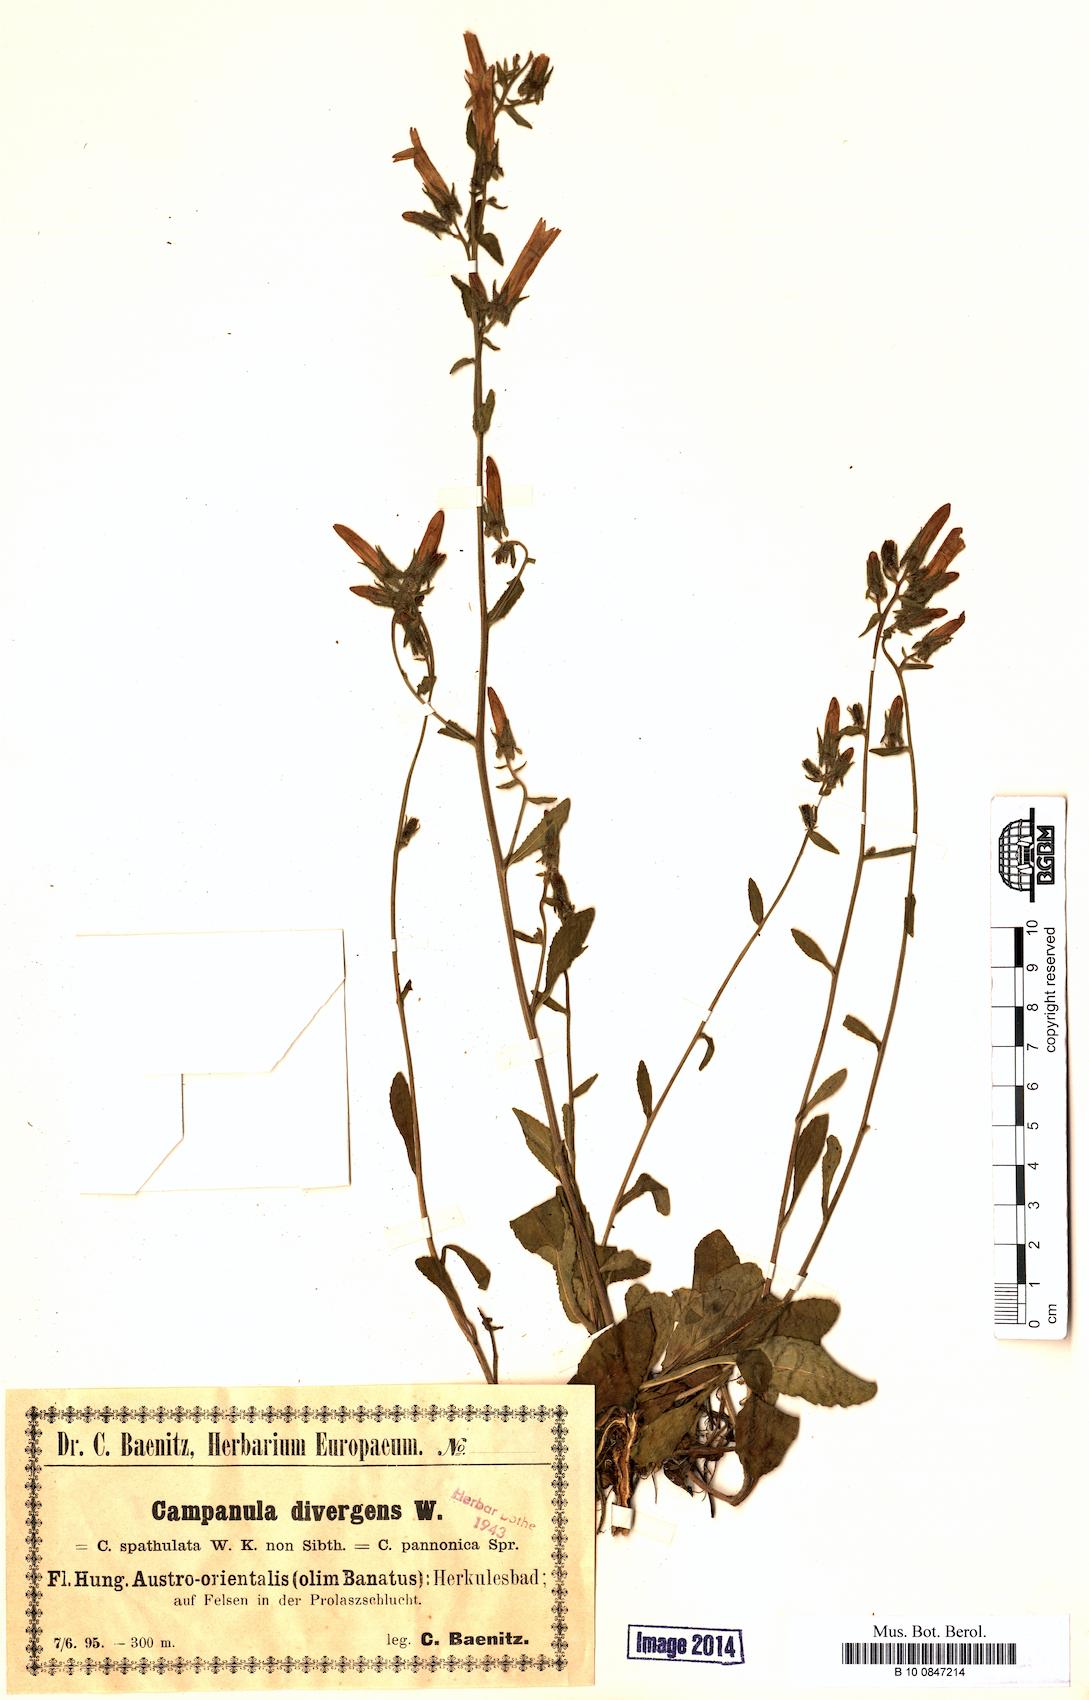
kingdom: Plantae
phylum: Tracheophyta
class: Magnoliopsida
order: Asterales
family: Campanulaceae
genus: Campanula
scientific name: Campanula sibirica
